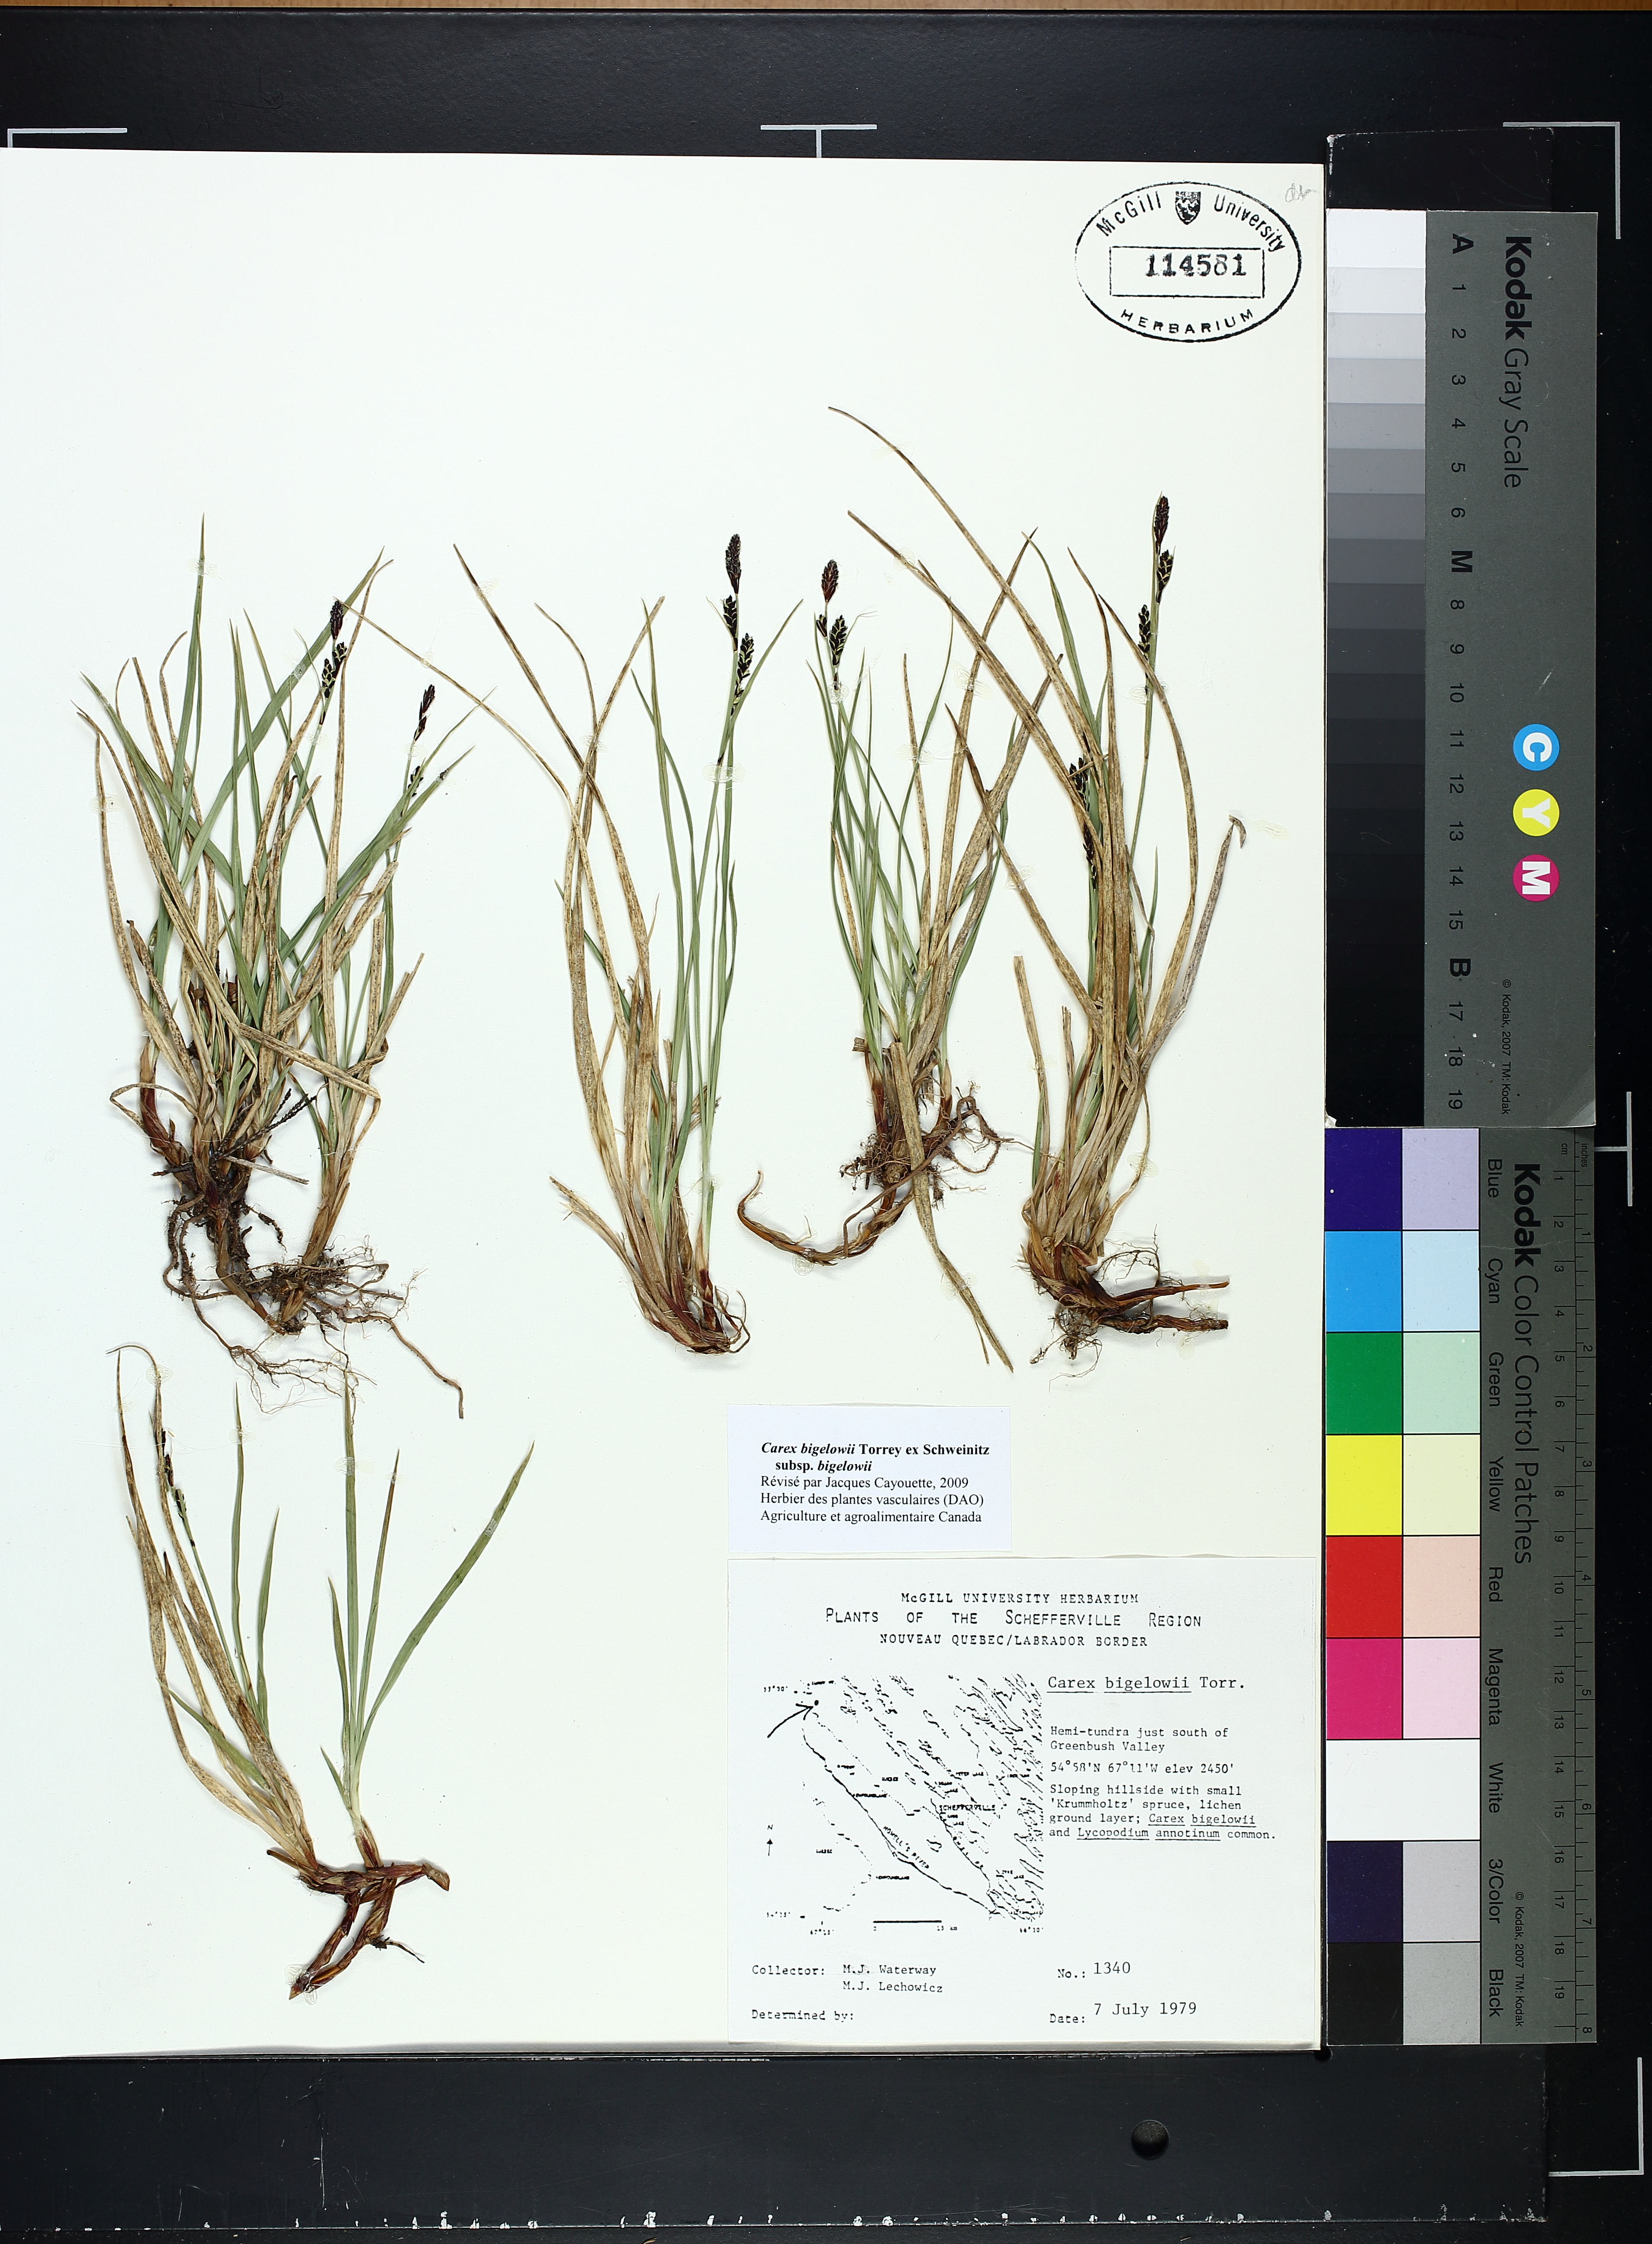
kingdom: Plantae
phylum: Tracheophyta
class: Liliopsida
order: Poales
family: Cyperaceae
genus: Carex
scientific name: Carex bigelowii
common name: Stiff sedge
